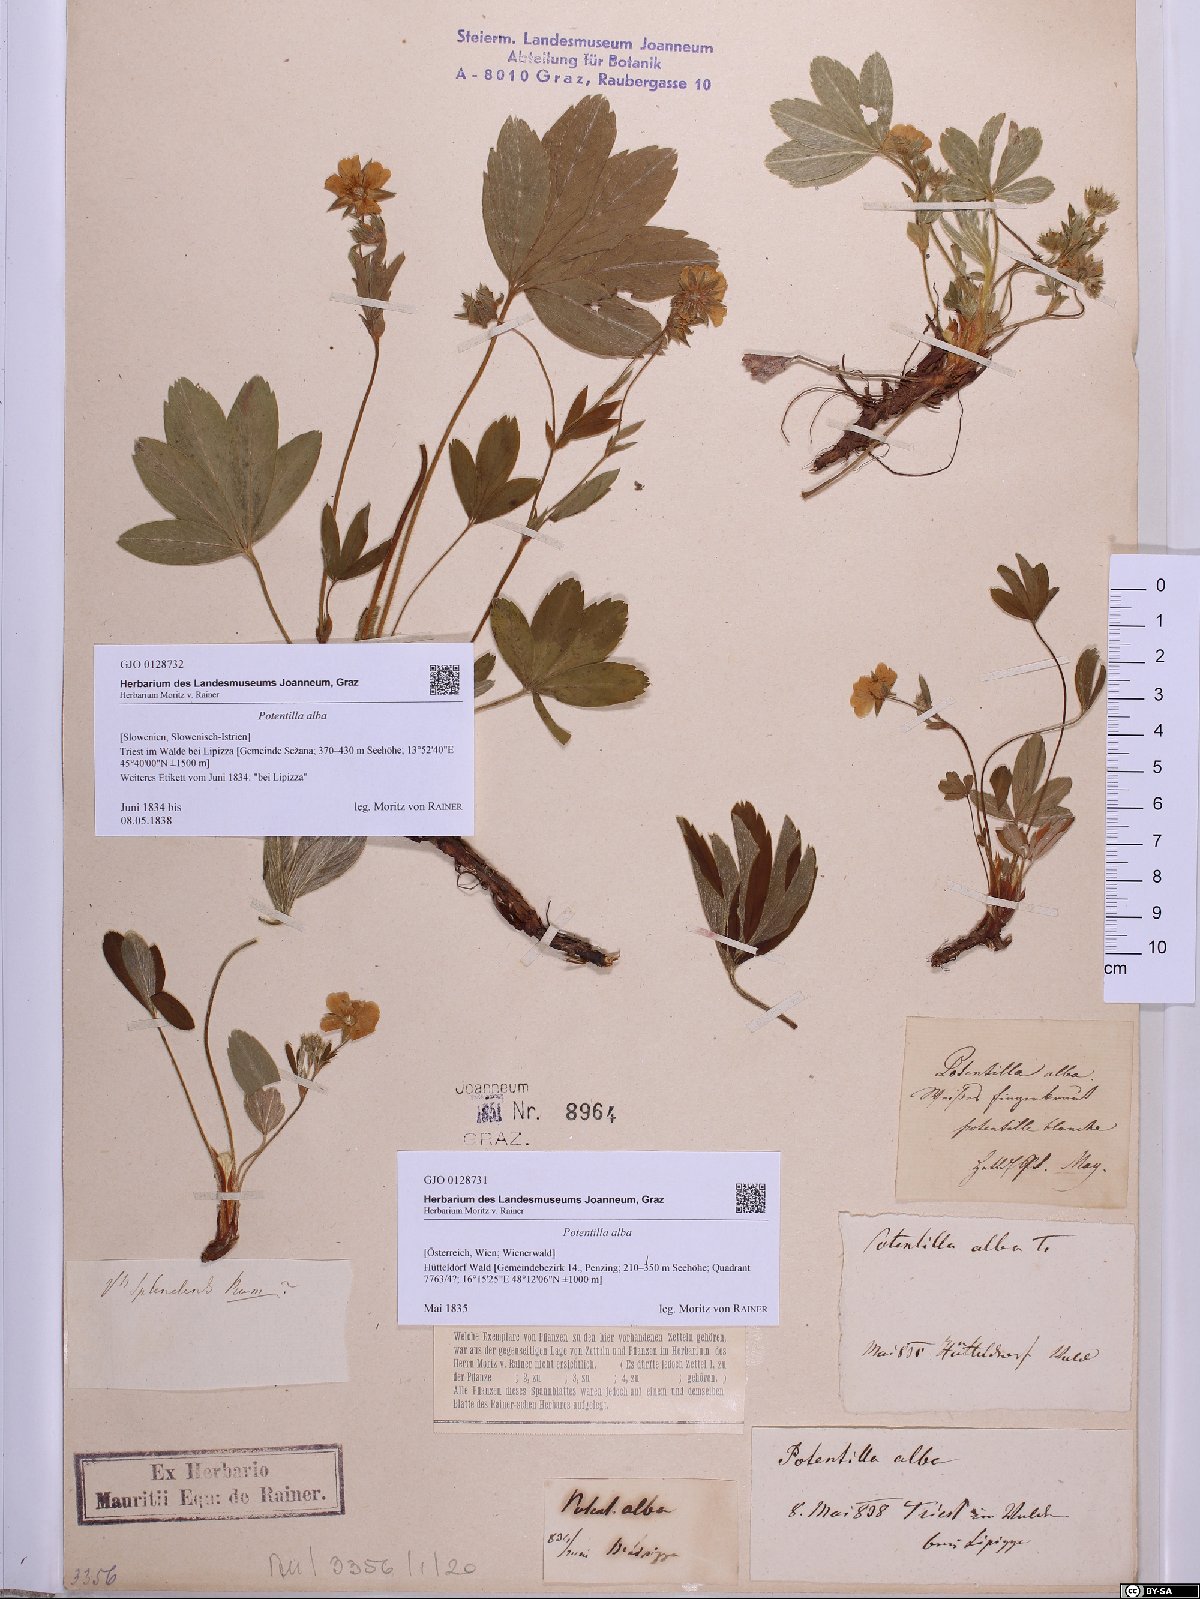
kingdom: Plantae
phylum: Tracheophyta
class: Magnoliopsida
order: Rosales
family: Rosaceae
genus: Potentilla
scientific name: Potentilla alba
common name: White cinquefoil
